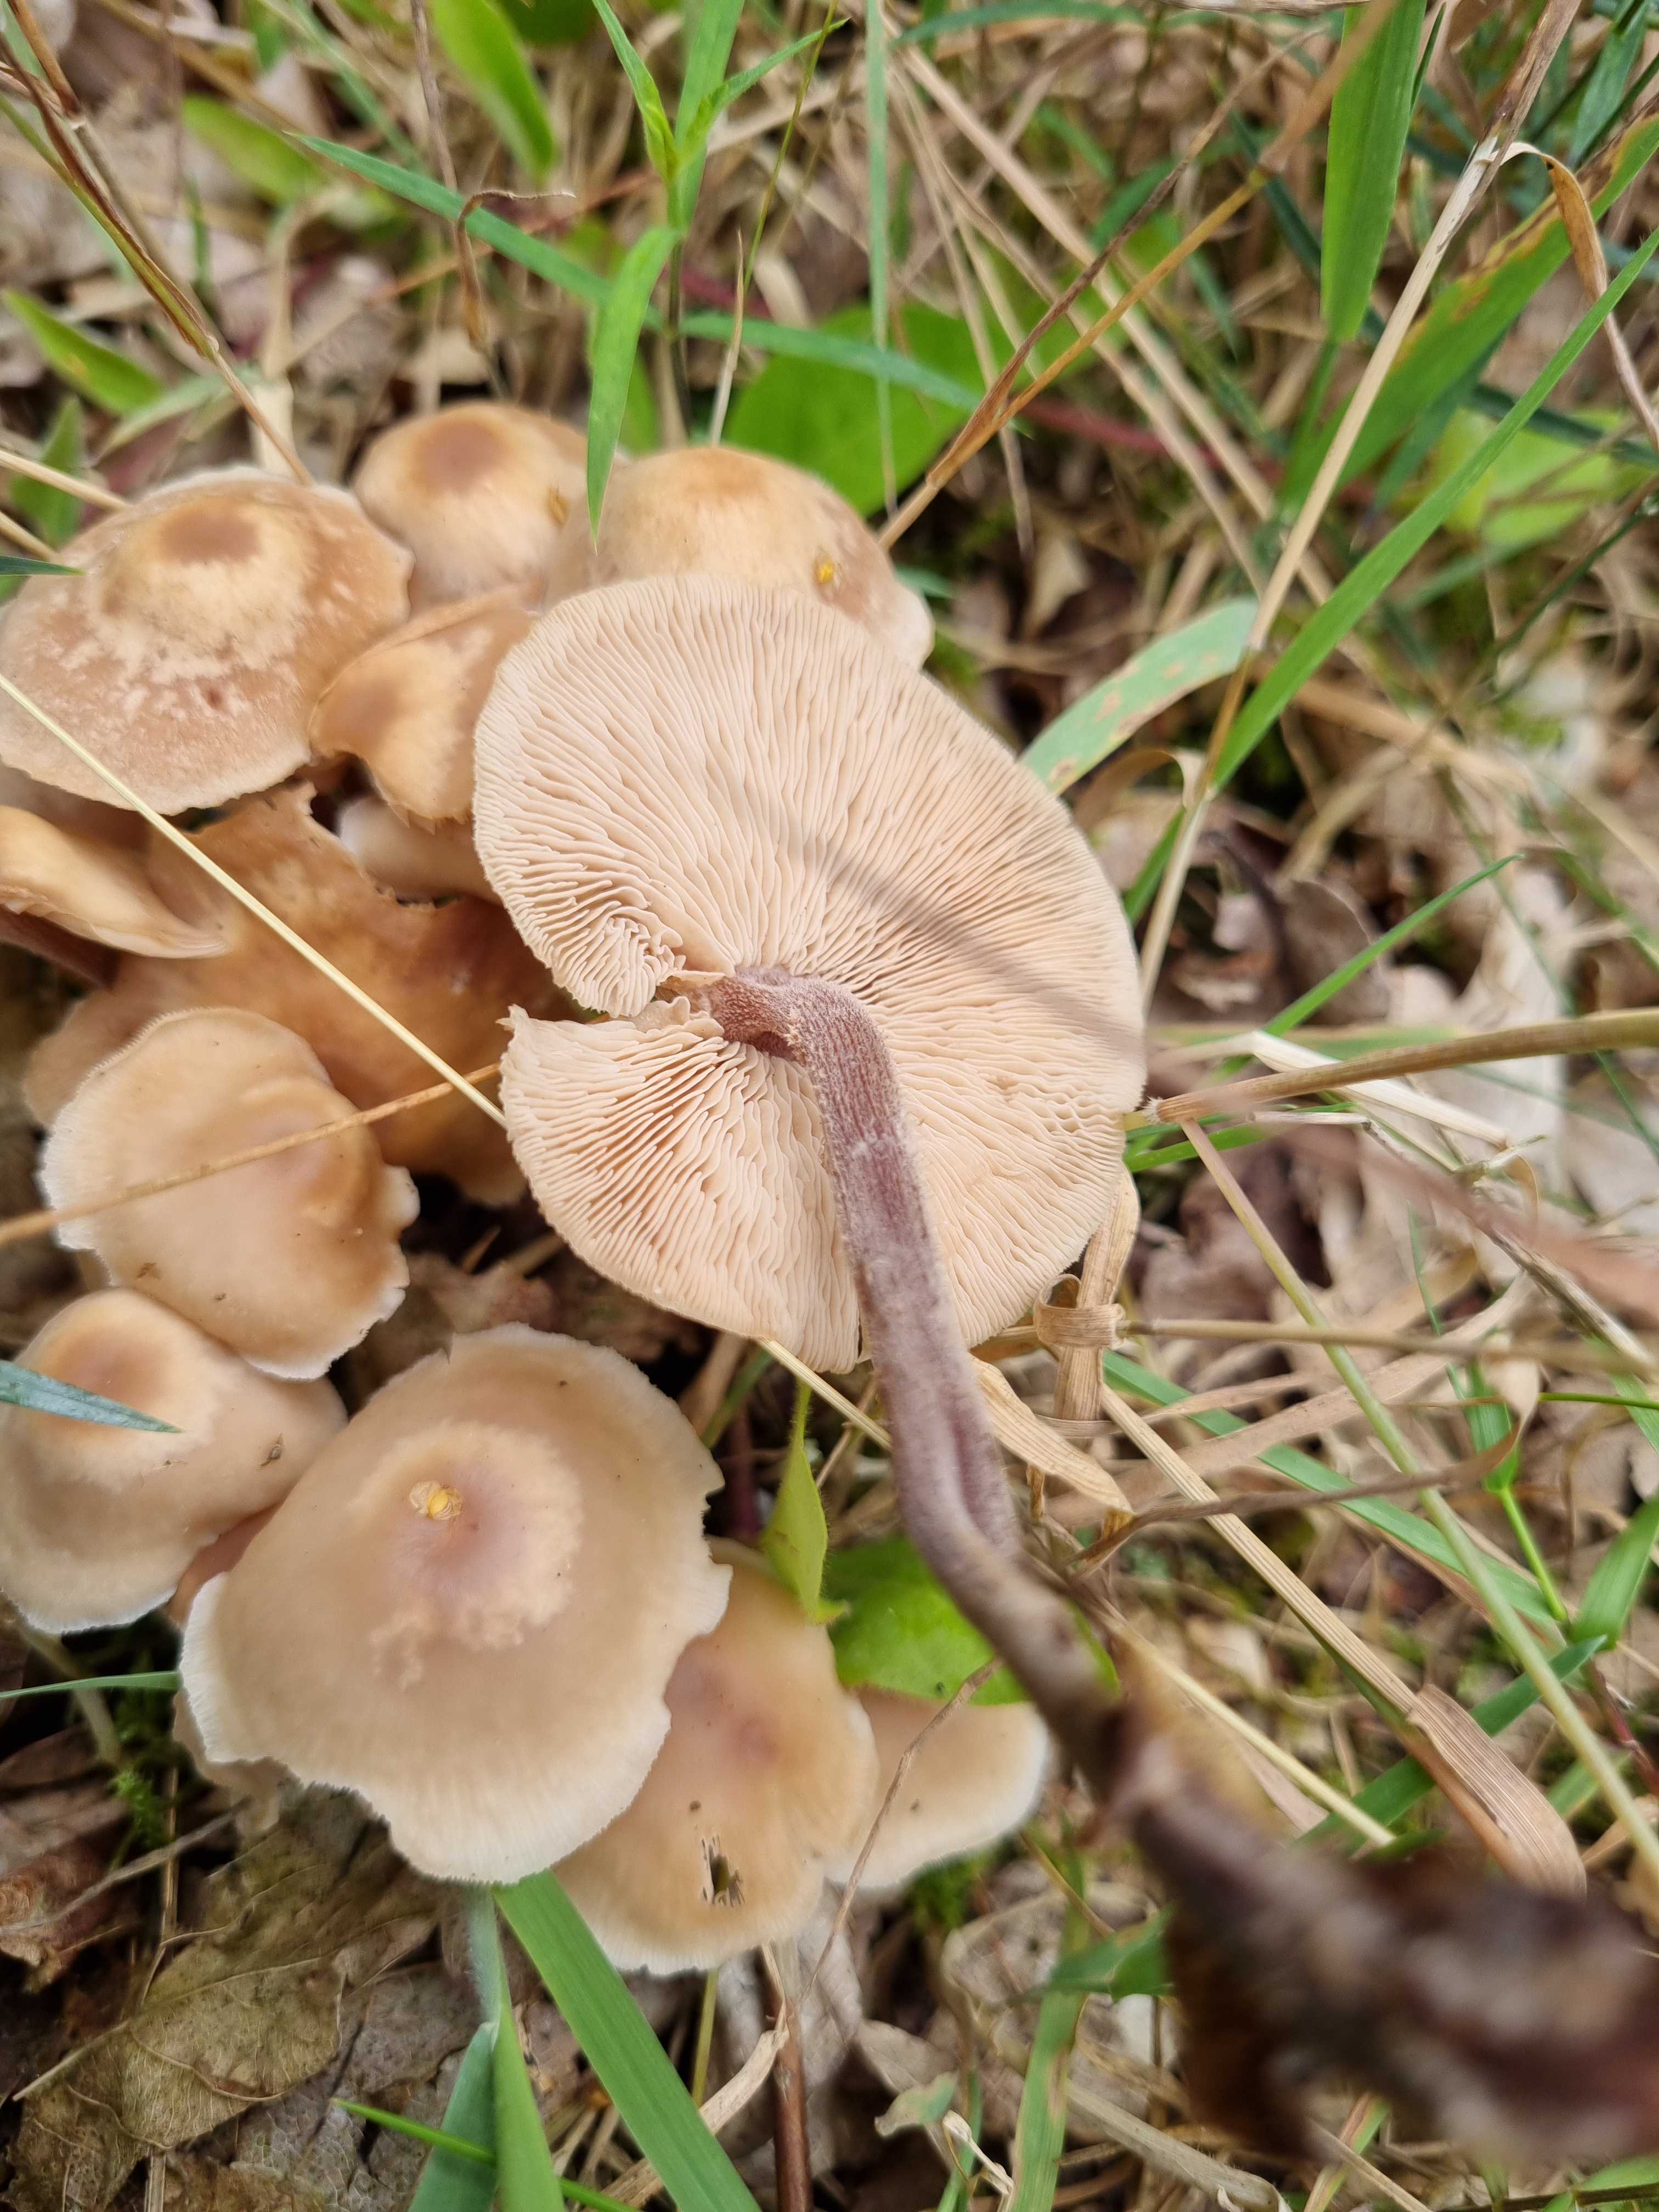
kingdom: Fungi
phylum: Basidiomycota
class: Agaricomycetes
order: Agaricales
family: Omphalotaceae
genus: Collybiopsis
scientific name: Collybiopsis confluens
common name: knippe-fladhat
